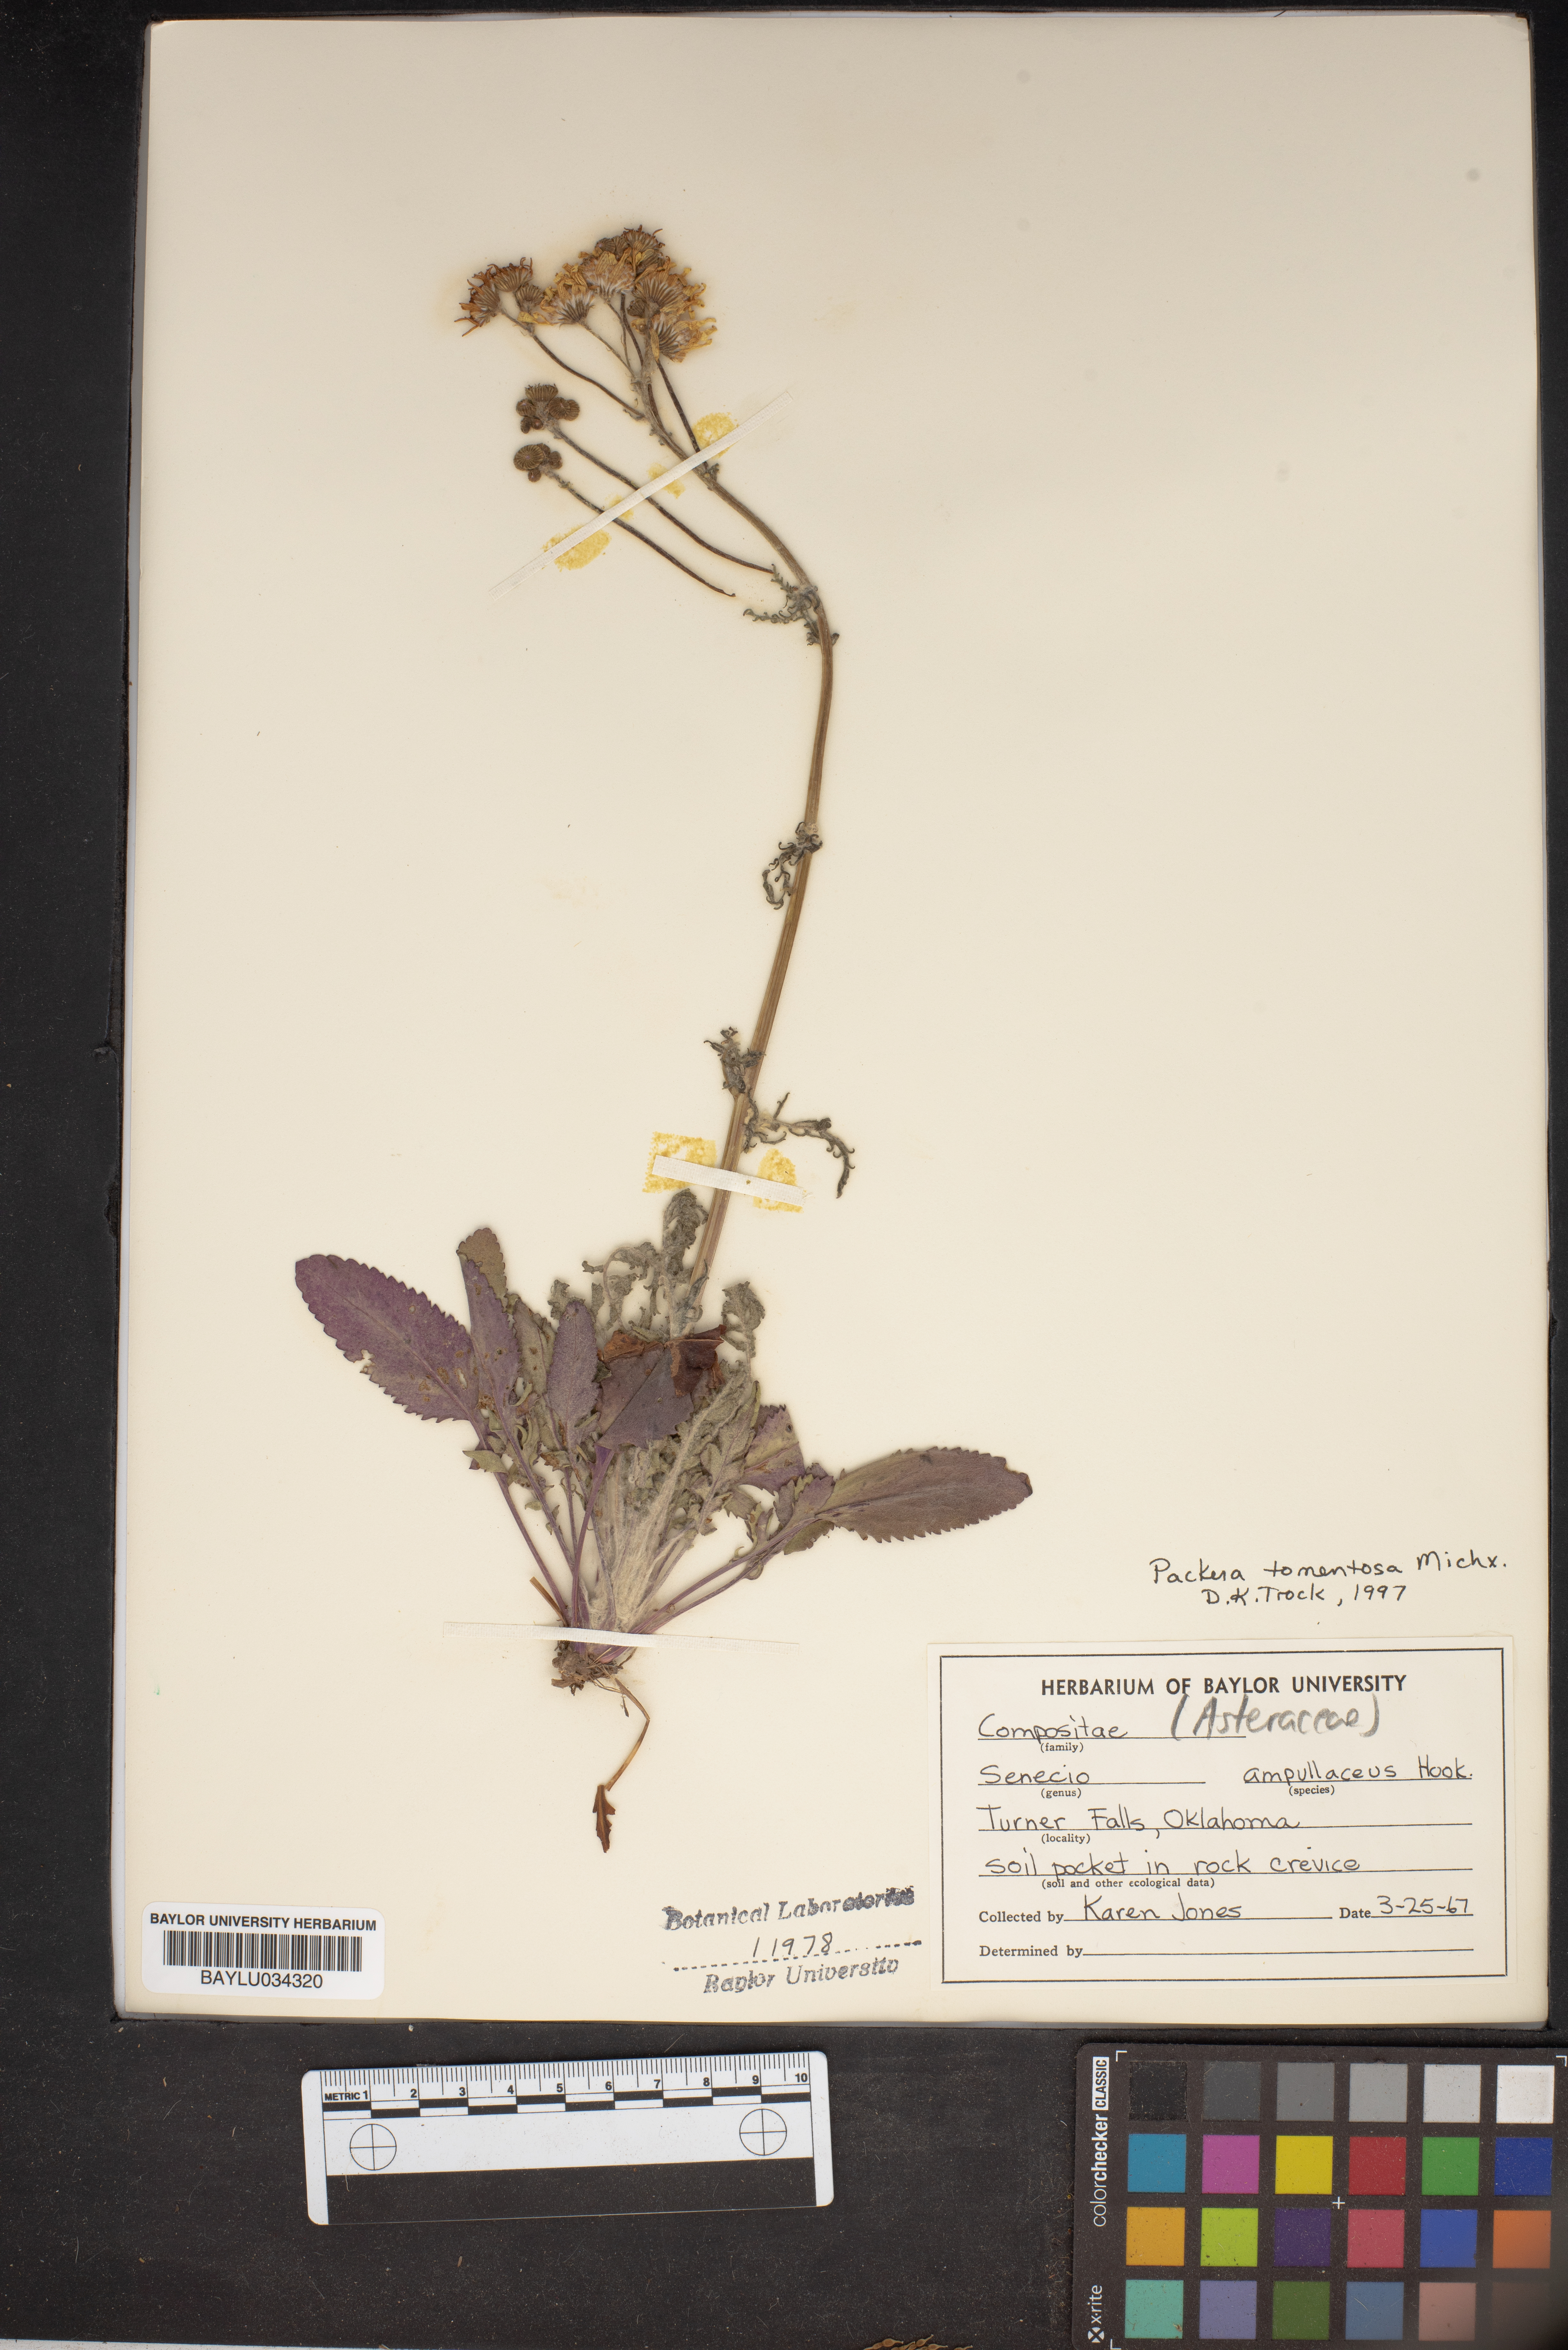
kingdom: Plantae
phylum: Tracheophyta
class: Magnoliopsida
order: Asterales
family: Asteraceae
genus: Packera
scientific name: Packera dubia
